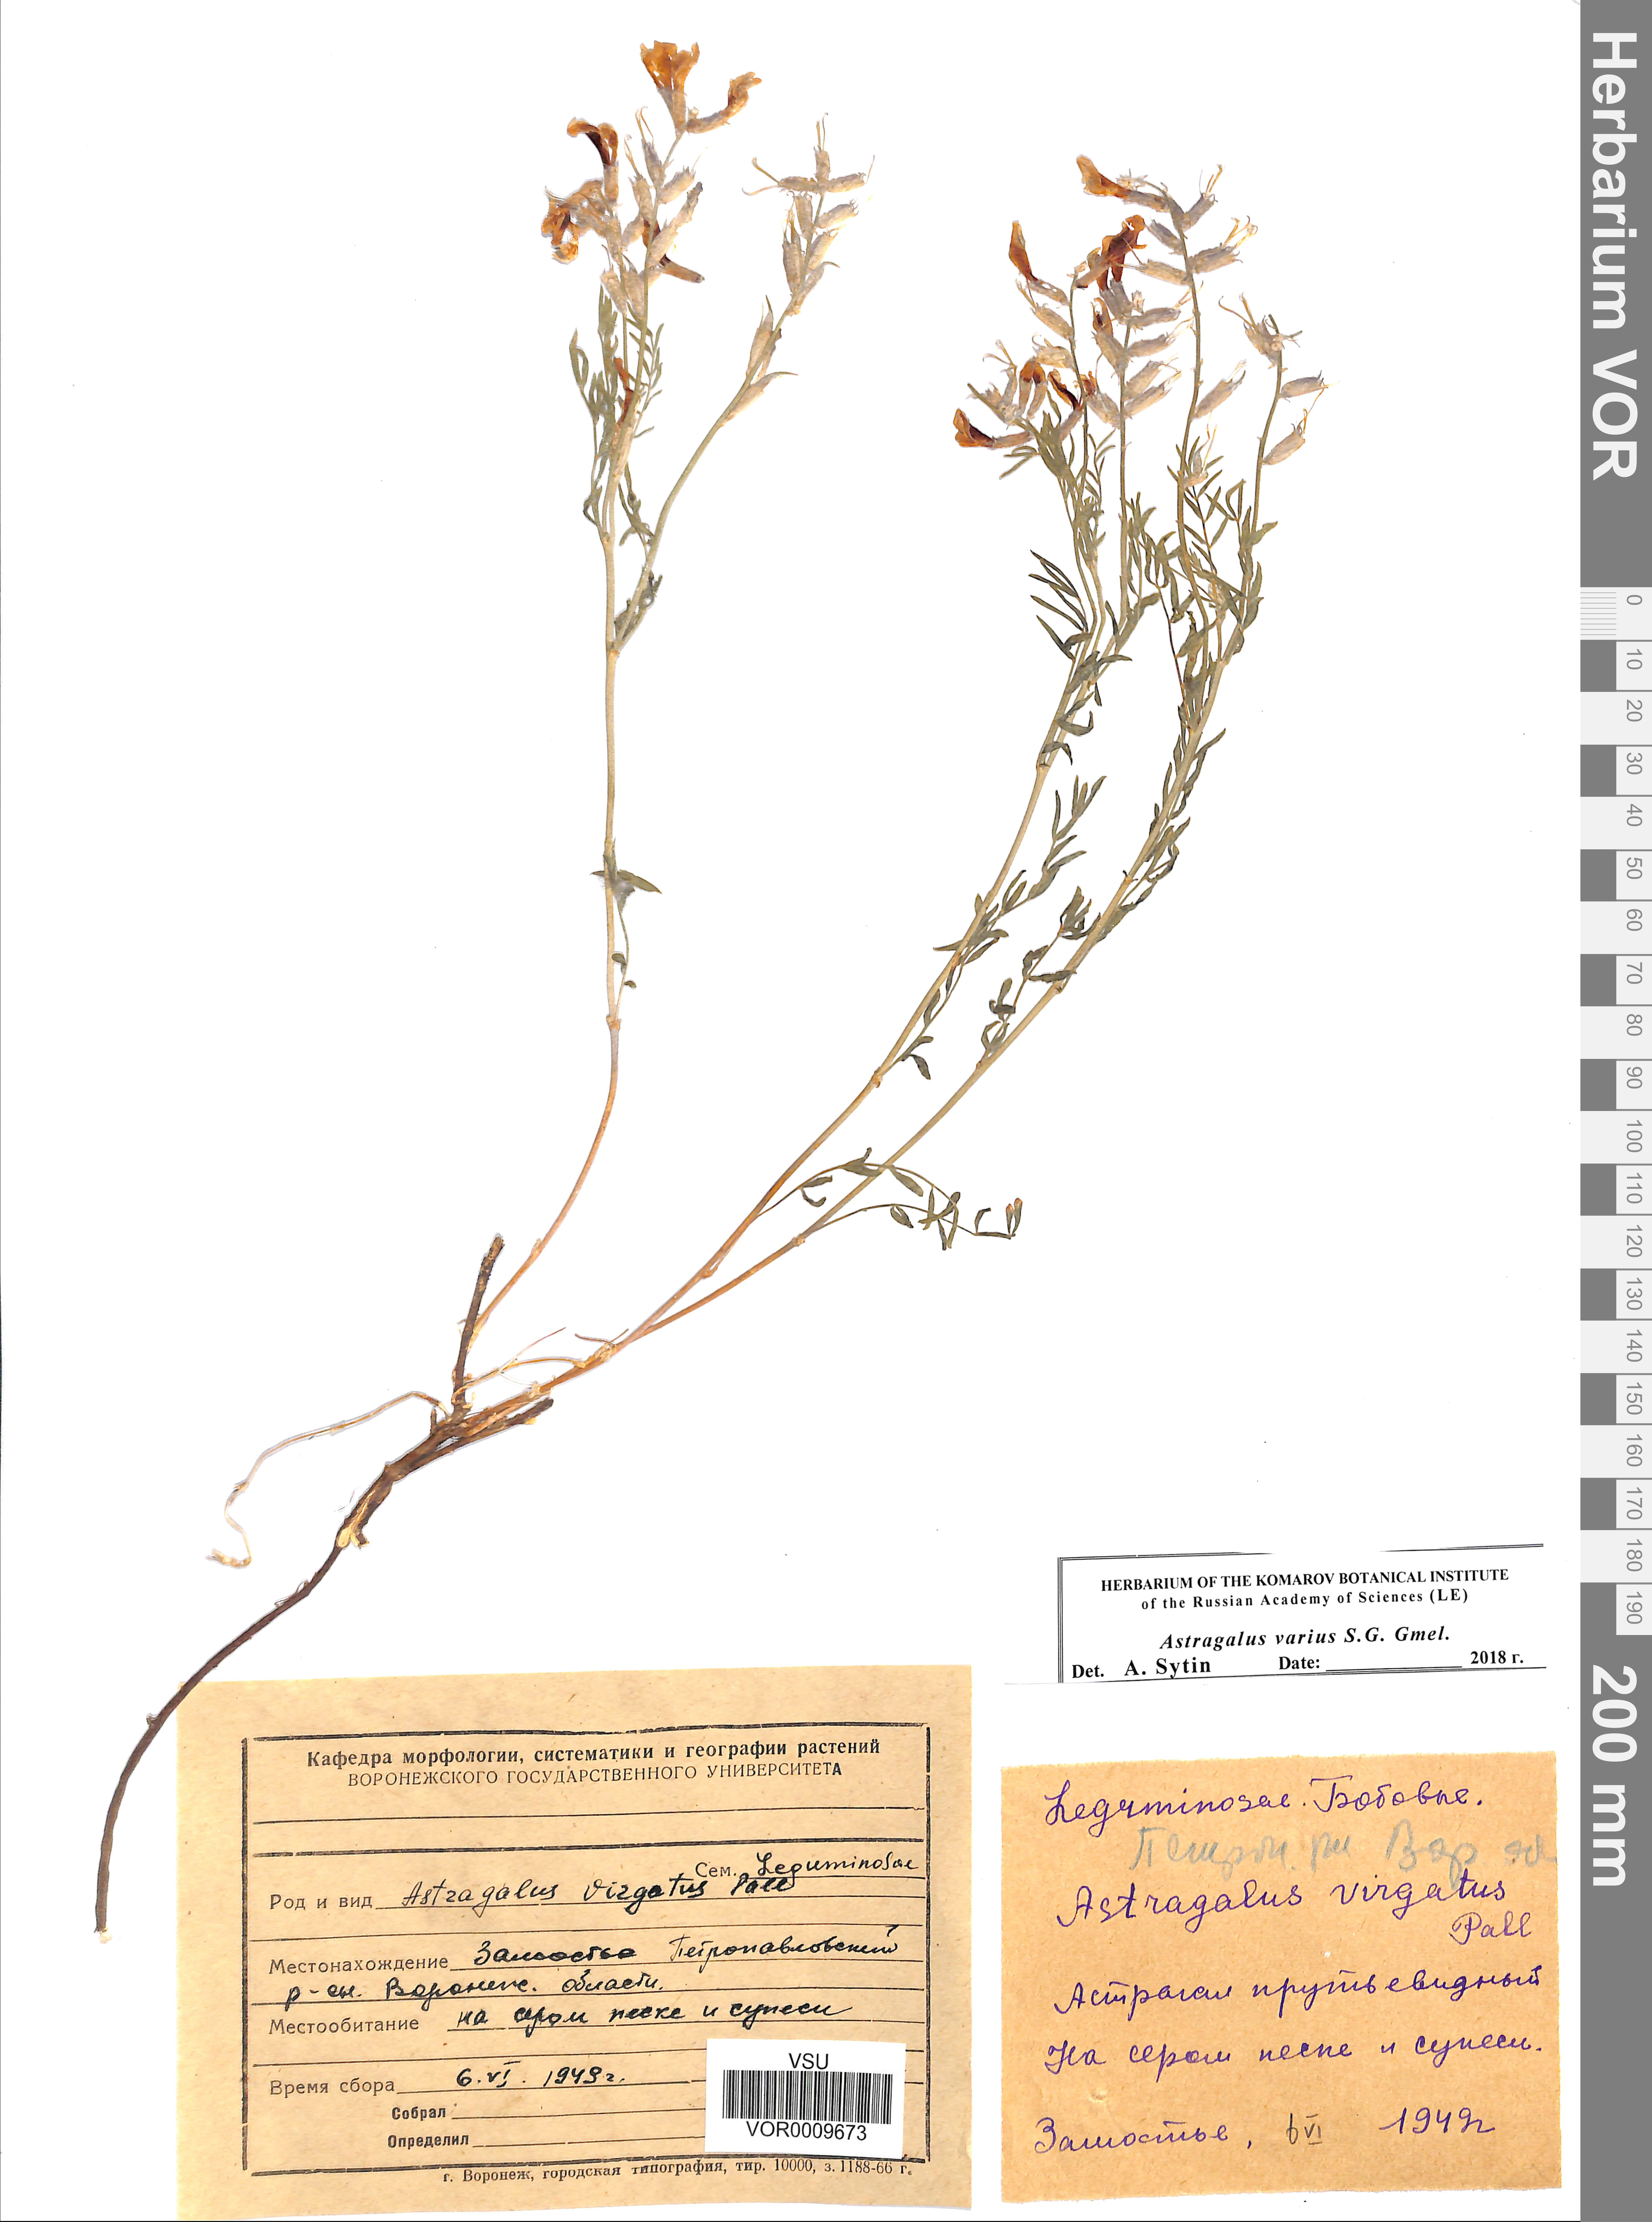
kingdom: Plantae
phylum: Tracheophyta
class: Magnoliopsida
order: Fabales
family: Fabaceae
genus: Astragalus
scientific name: Astragalus varius
